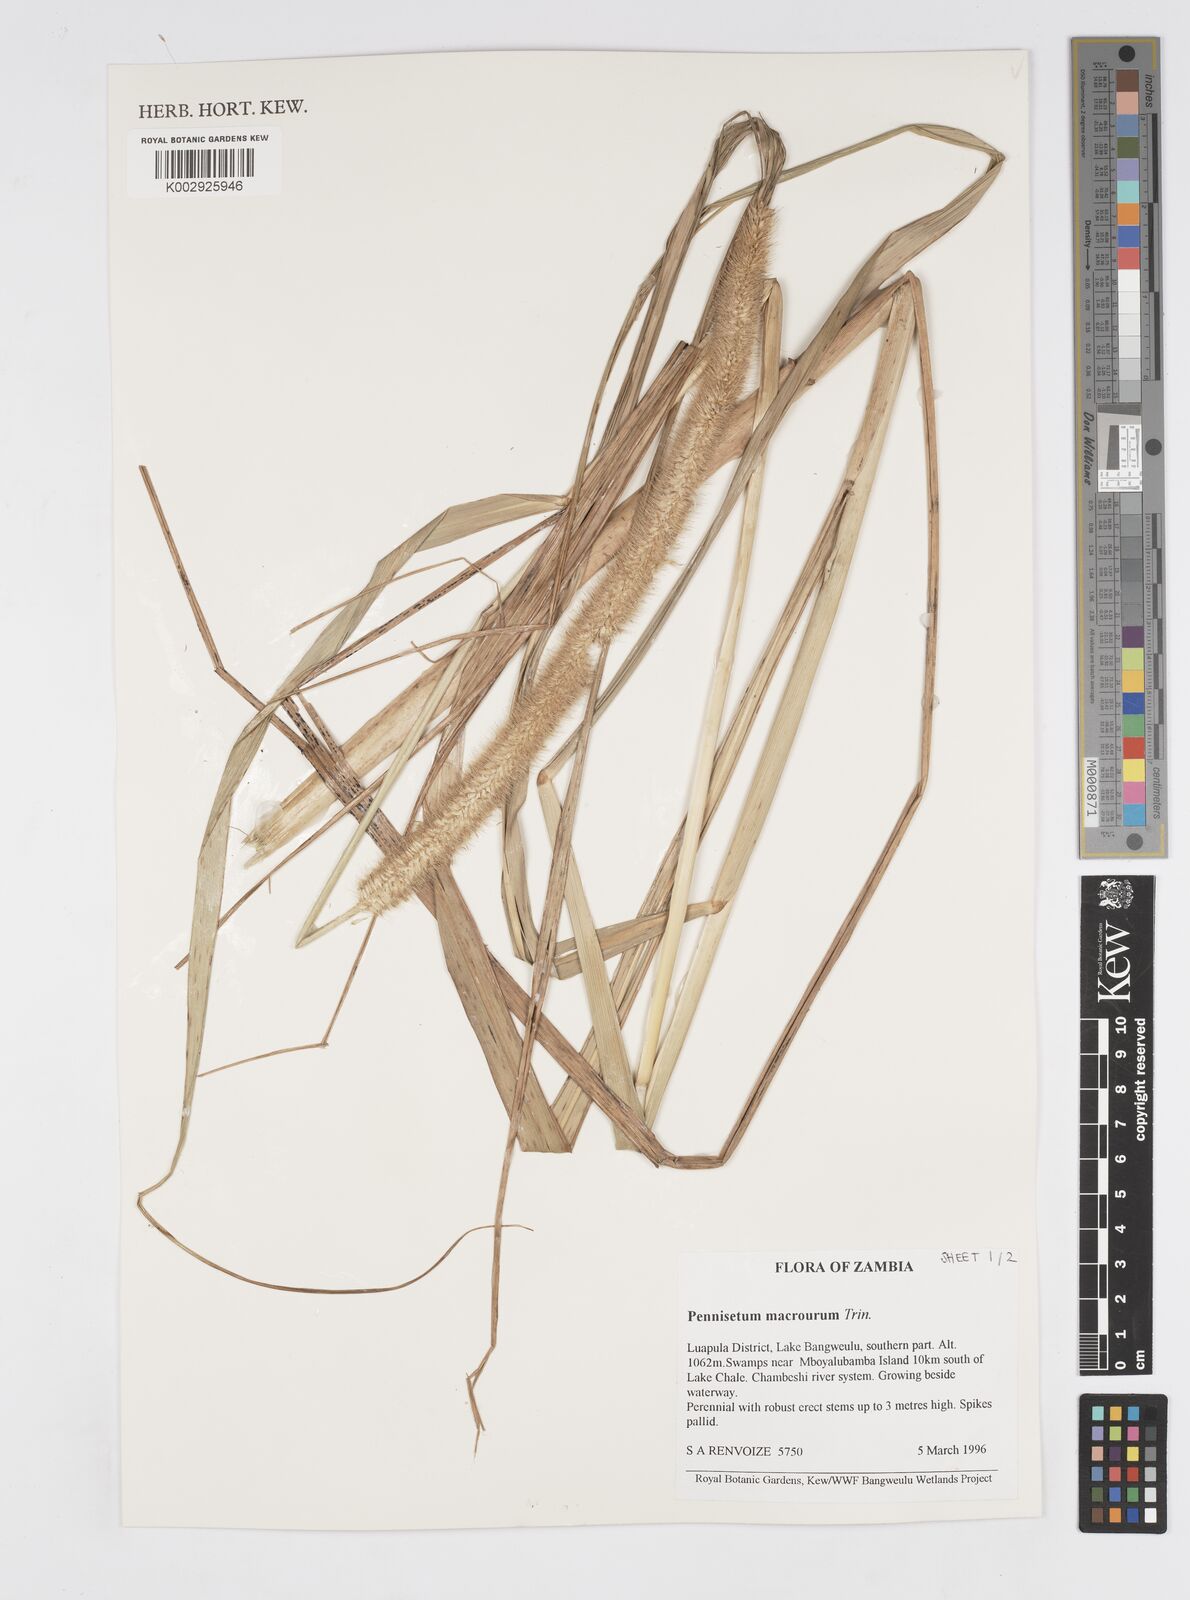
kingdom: Plantae
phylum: Tracheophyta
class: Liliopsida
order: Poales
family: Poaceae
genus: Cenchrus
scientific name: Cenchrus caudatus
